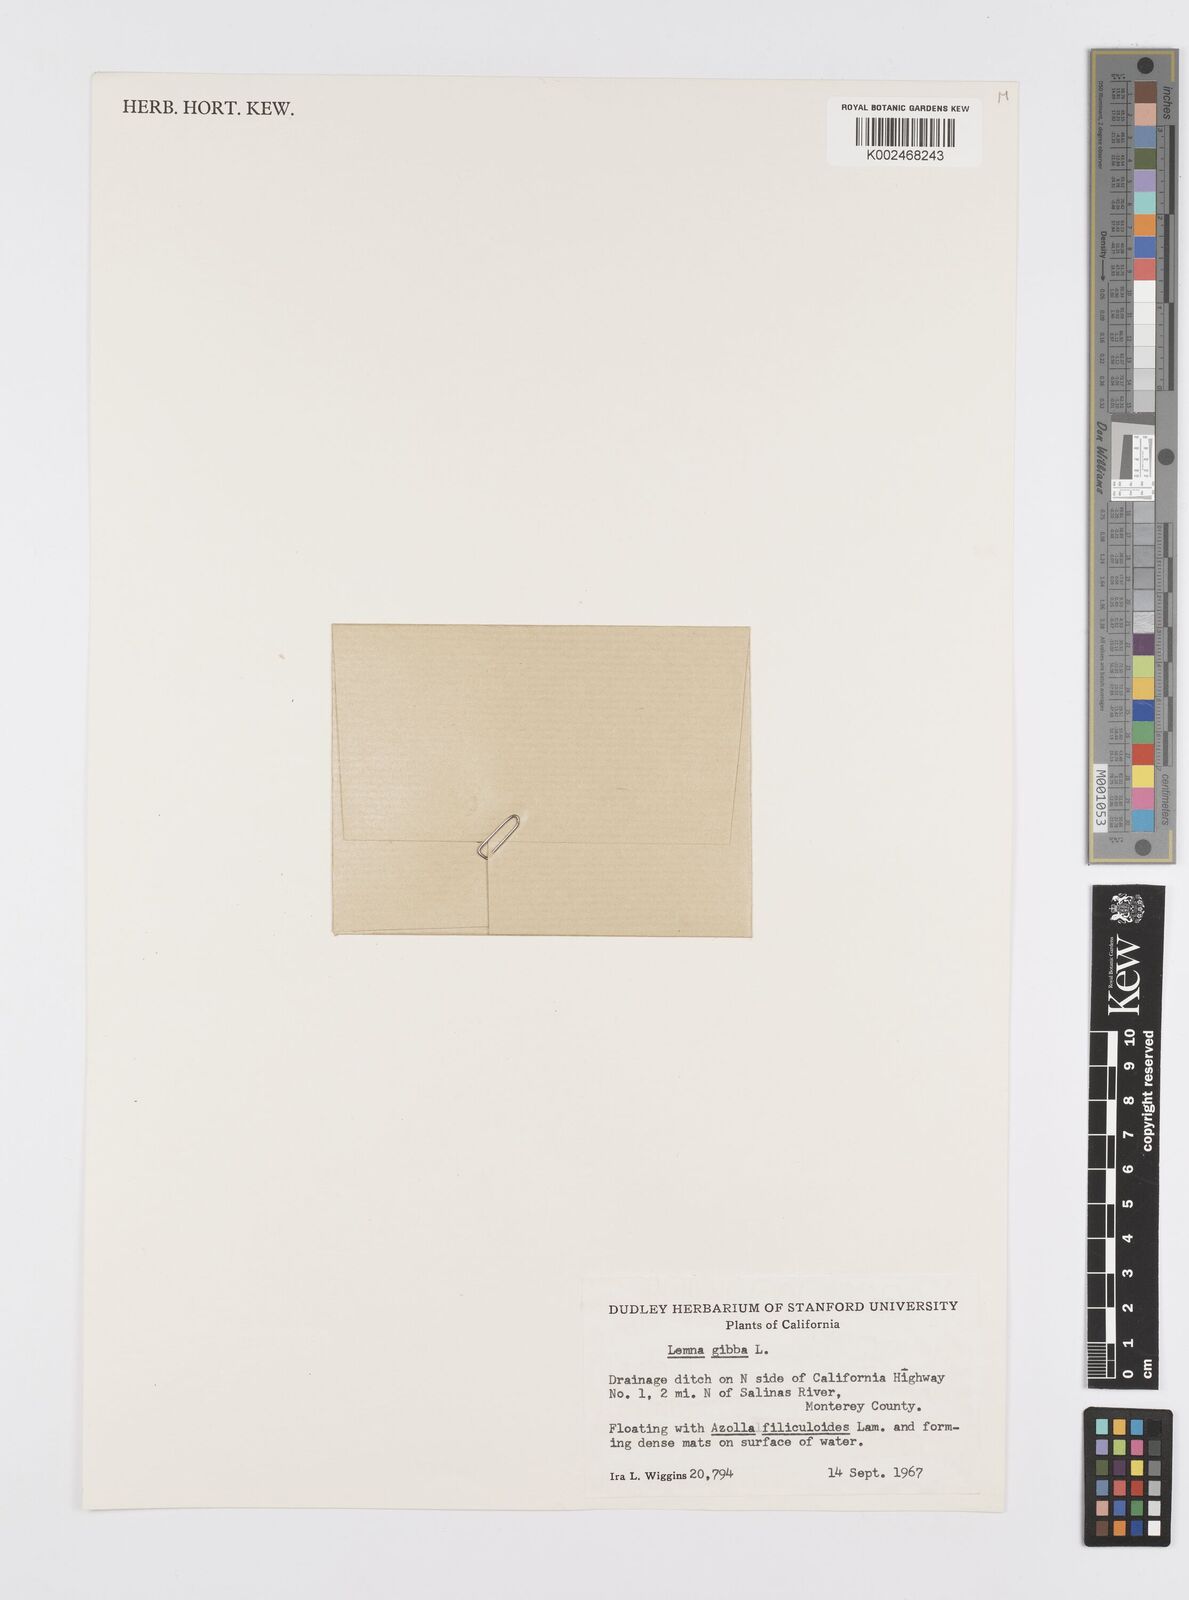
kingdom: Plantae
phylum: Tracheophyta
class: Liliopsida
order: Alismatales
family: Araceae
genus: Lemna
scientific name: Lemna gibba
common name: Fat duckweed
